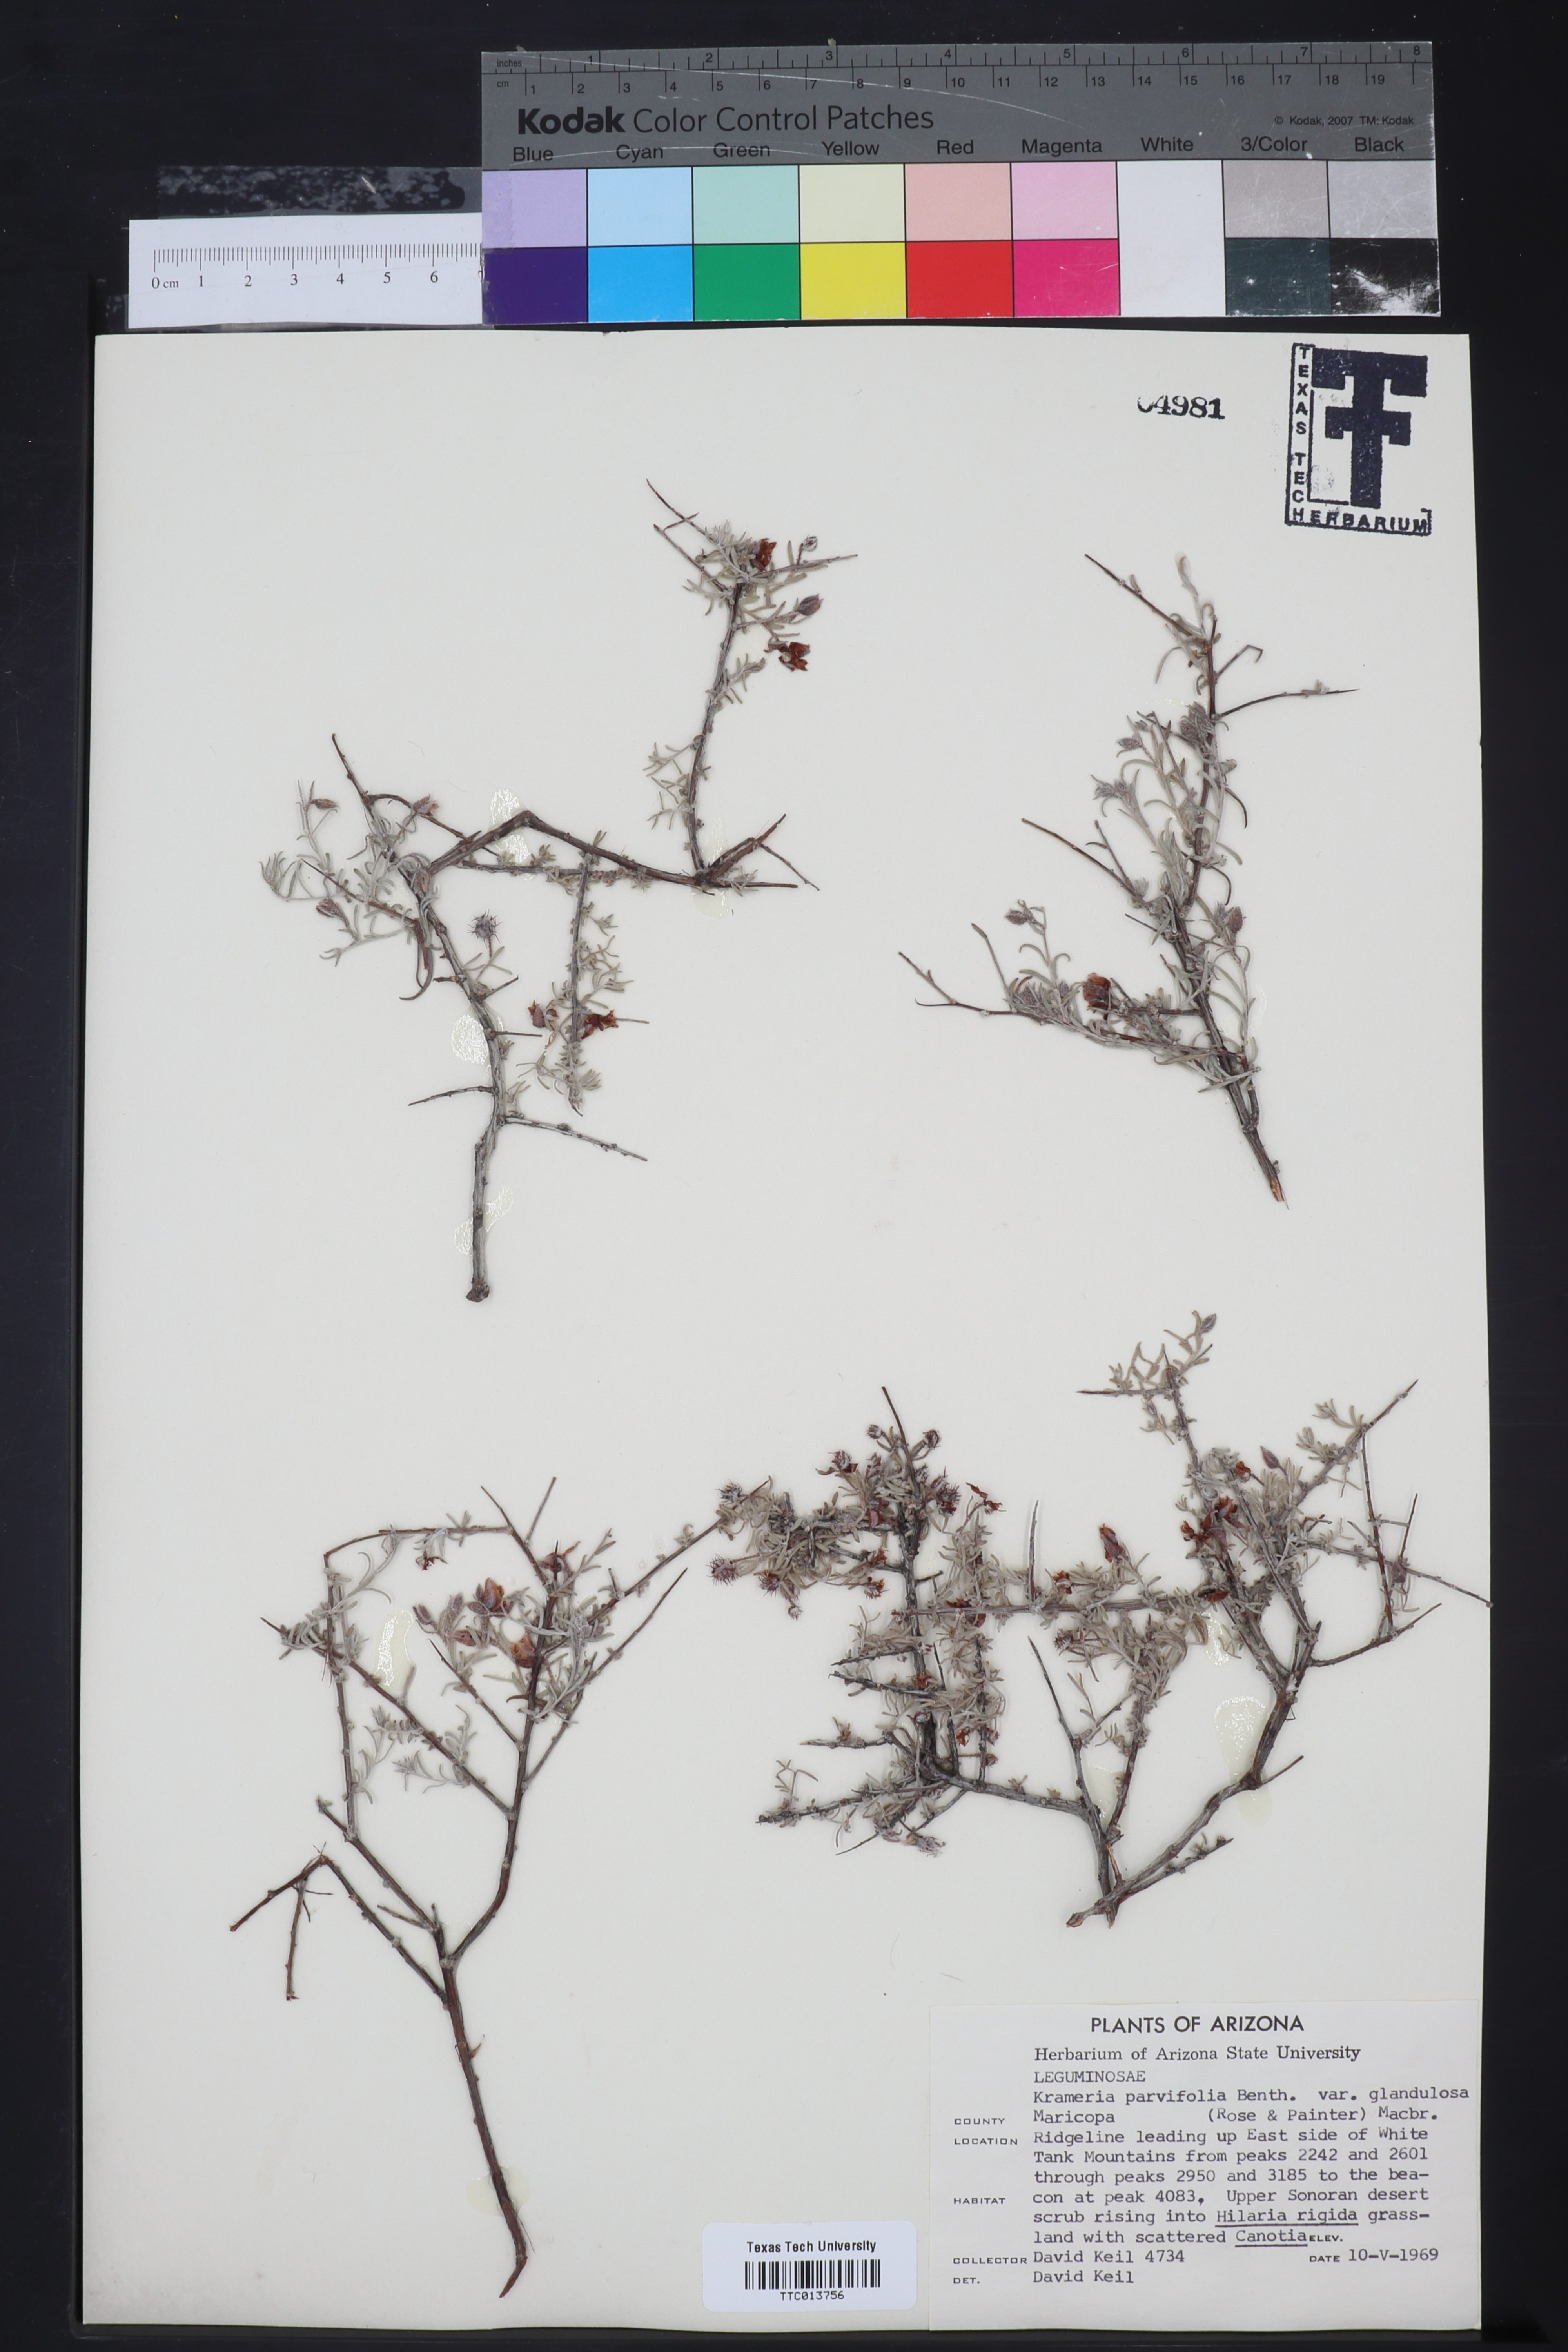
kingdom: Plantae
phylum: Tracheophyta
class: Magnoliopsida
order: Zygophyllales
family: Krameriaceae
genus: Krameria
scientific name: Krameria erecta
